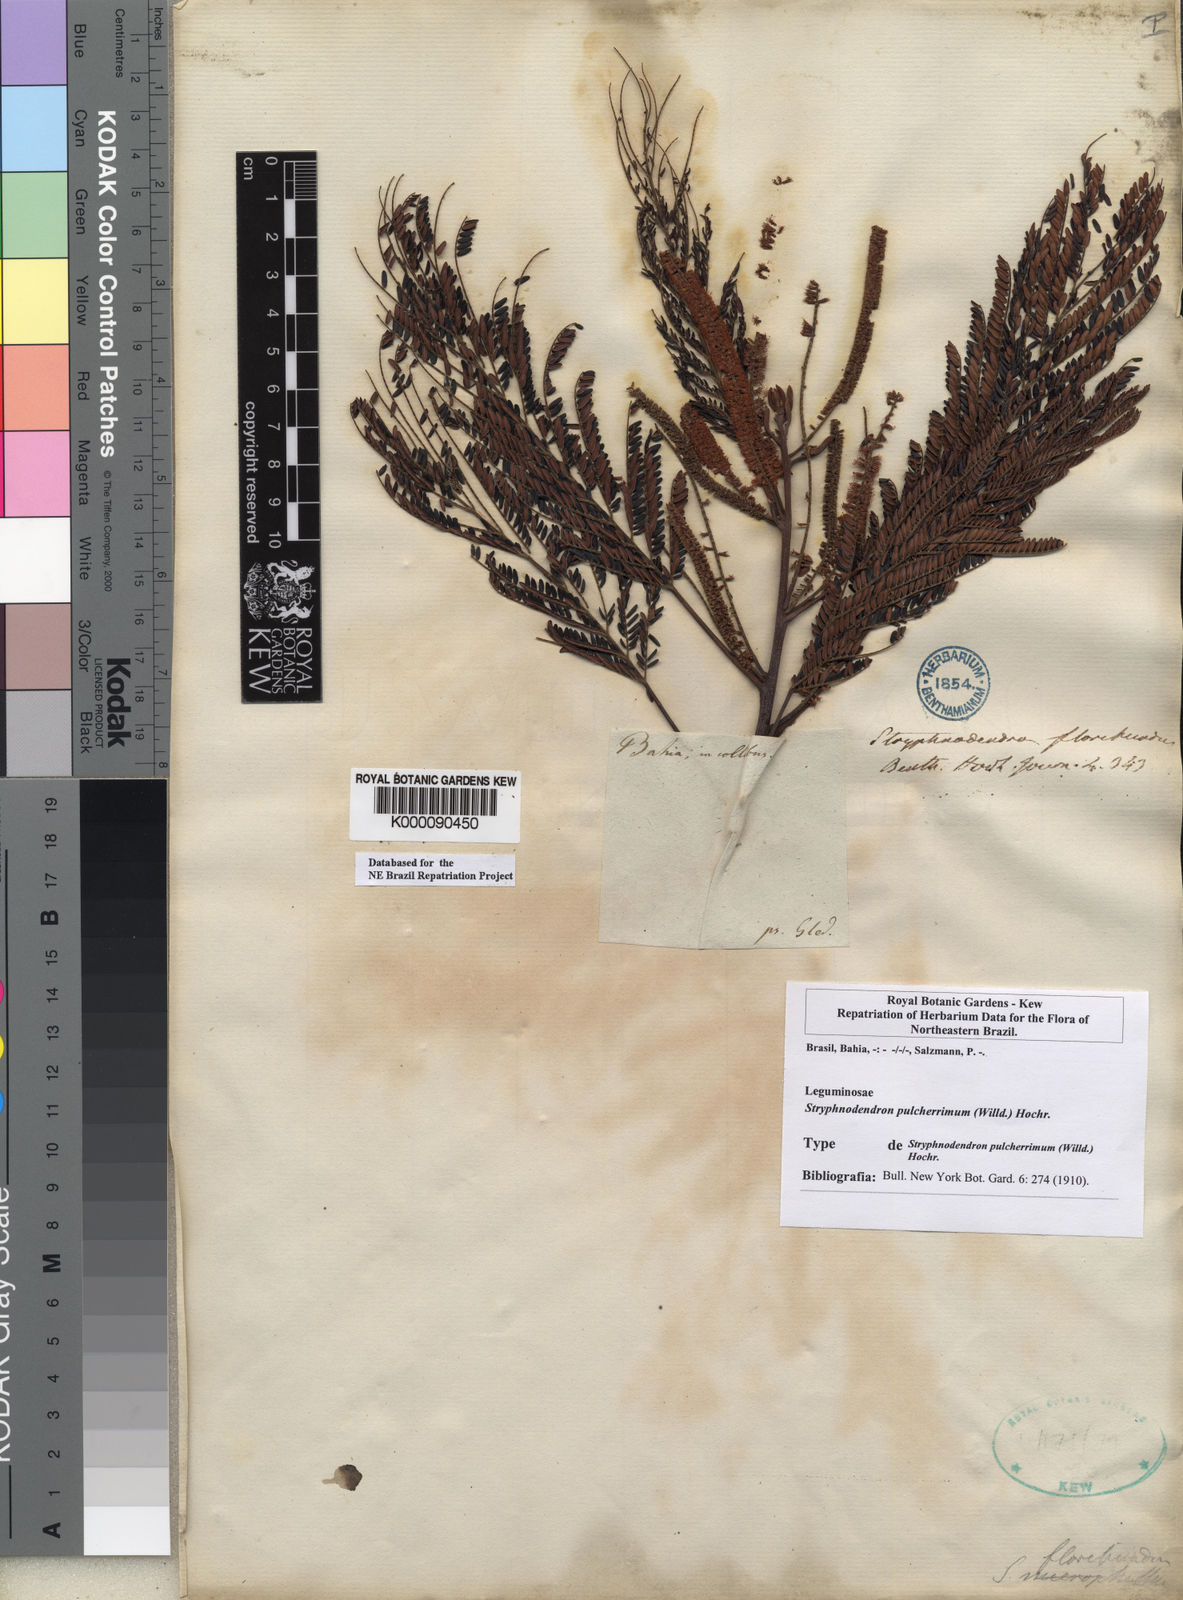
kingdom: Plantae
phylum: Tracheophyta
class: Magnoliopsida
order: Fabales
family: Fabaceae
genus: Stryphnodendron
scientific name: Stryphnodendron pulcherrimum
